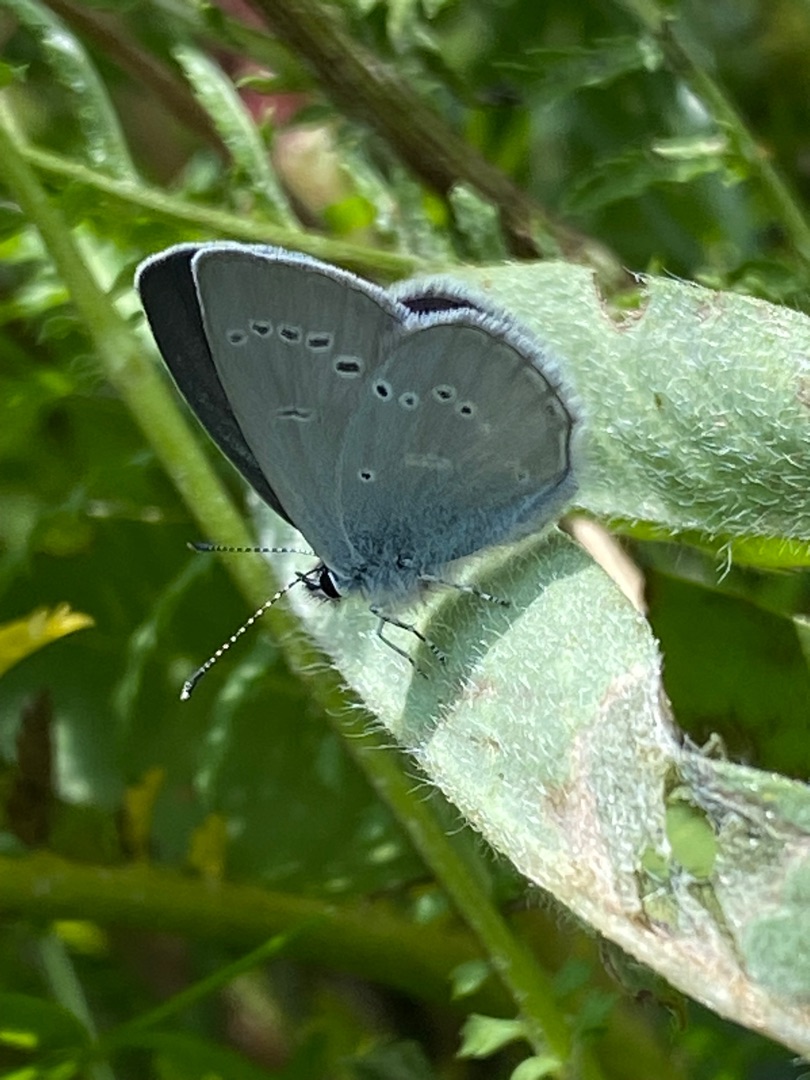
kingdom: Animalia
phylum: Arthropoda
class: Insecta
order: Lepidoptera
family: Lycaenidae
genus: Cupido
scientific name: Cupido minimus
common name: Dværgblåfugl
